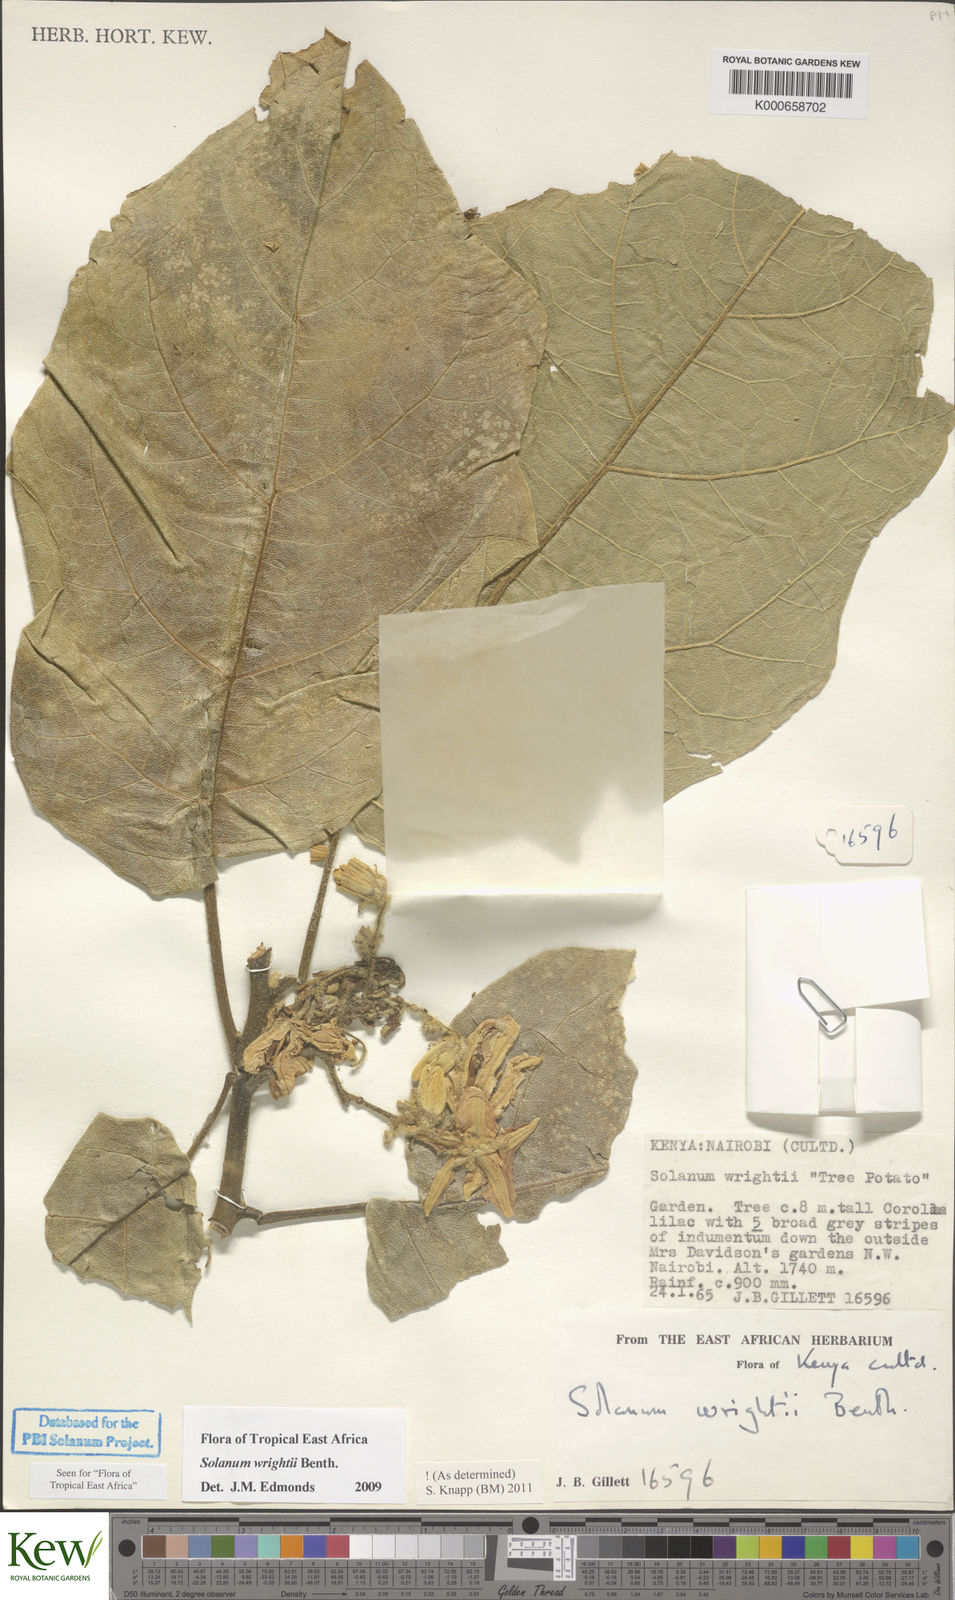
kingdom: Plantae
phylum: Tracheophyta
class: Magnoliopsida
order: Solanales
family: Solanaceae
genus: Solanum
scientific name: Solanum wrightii
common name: Brazilian potato-tree
